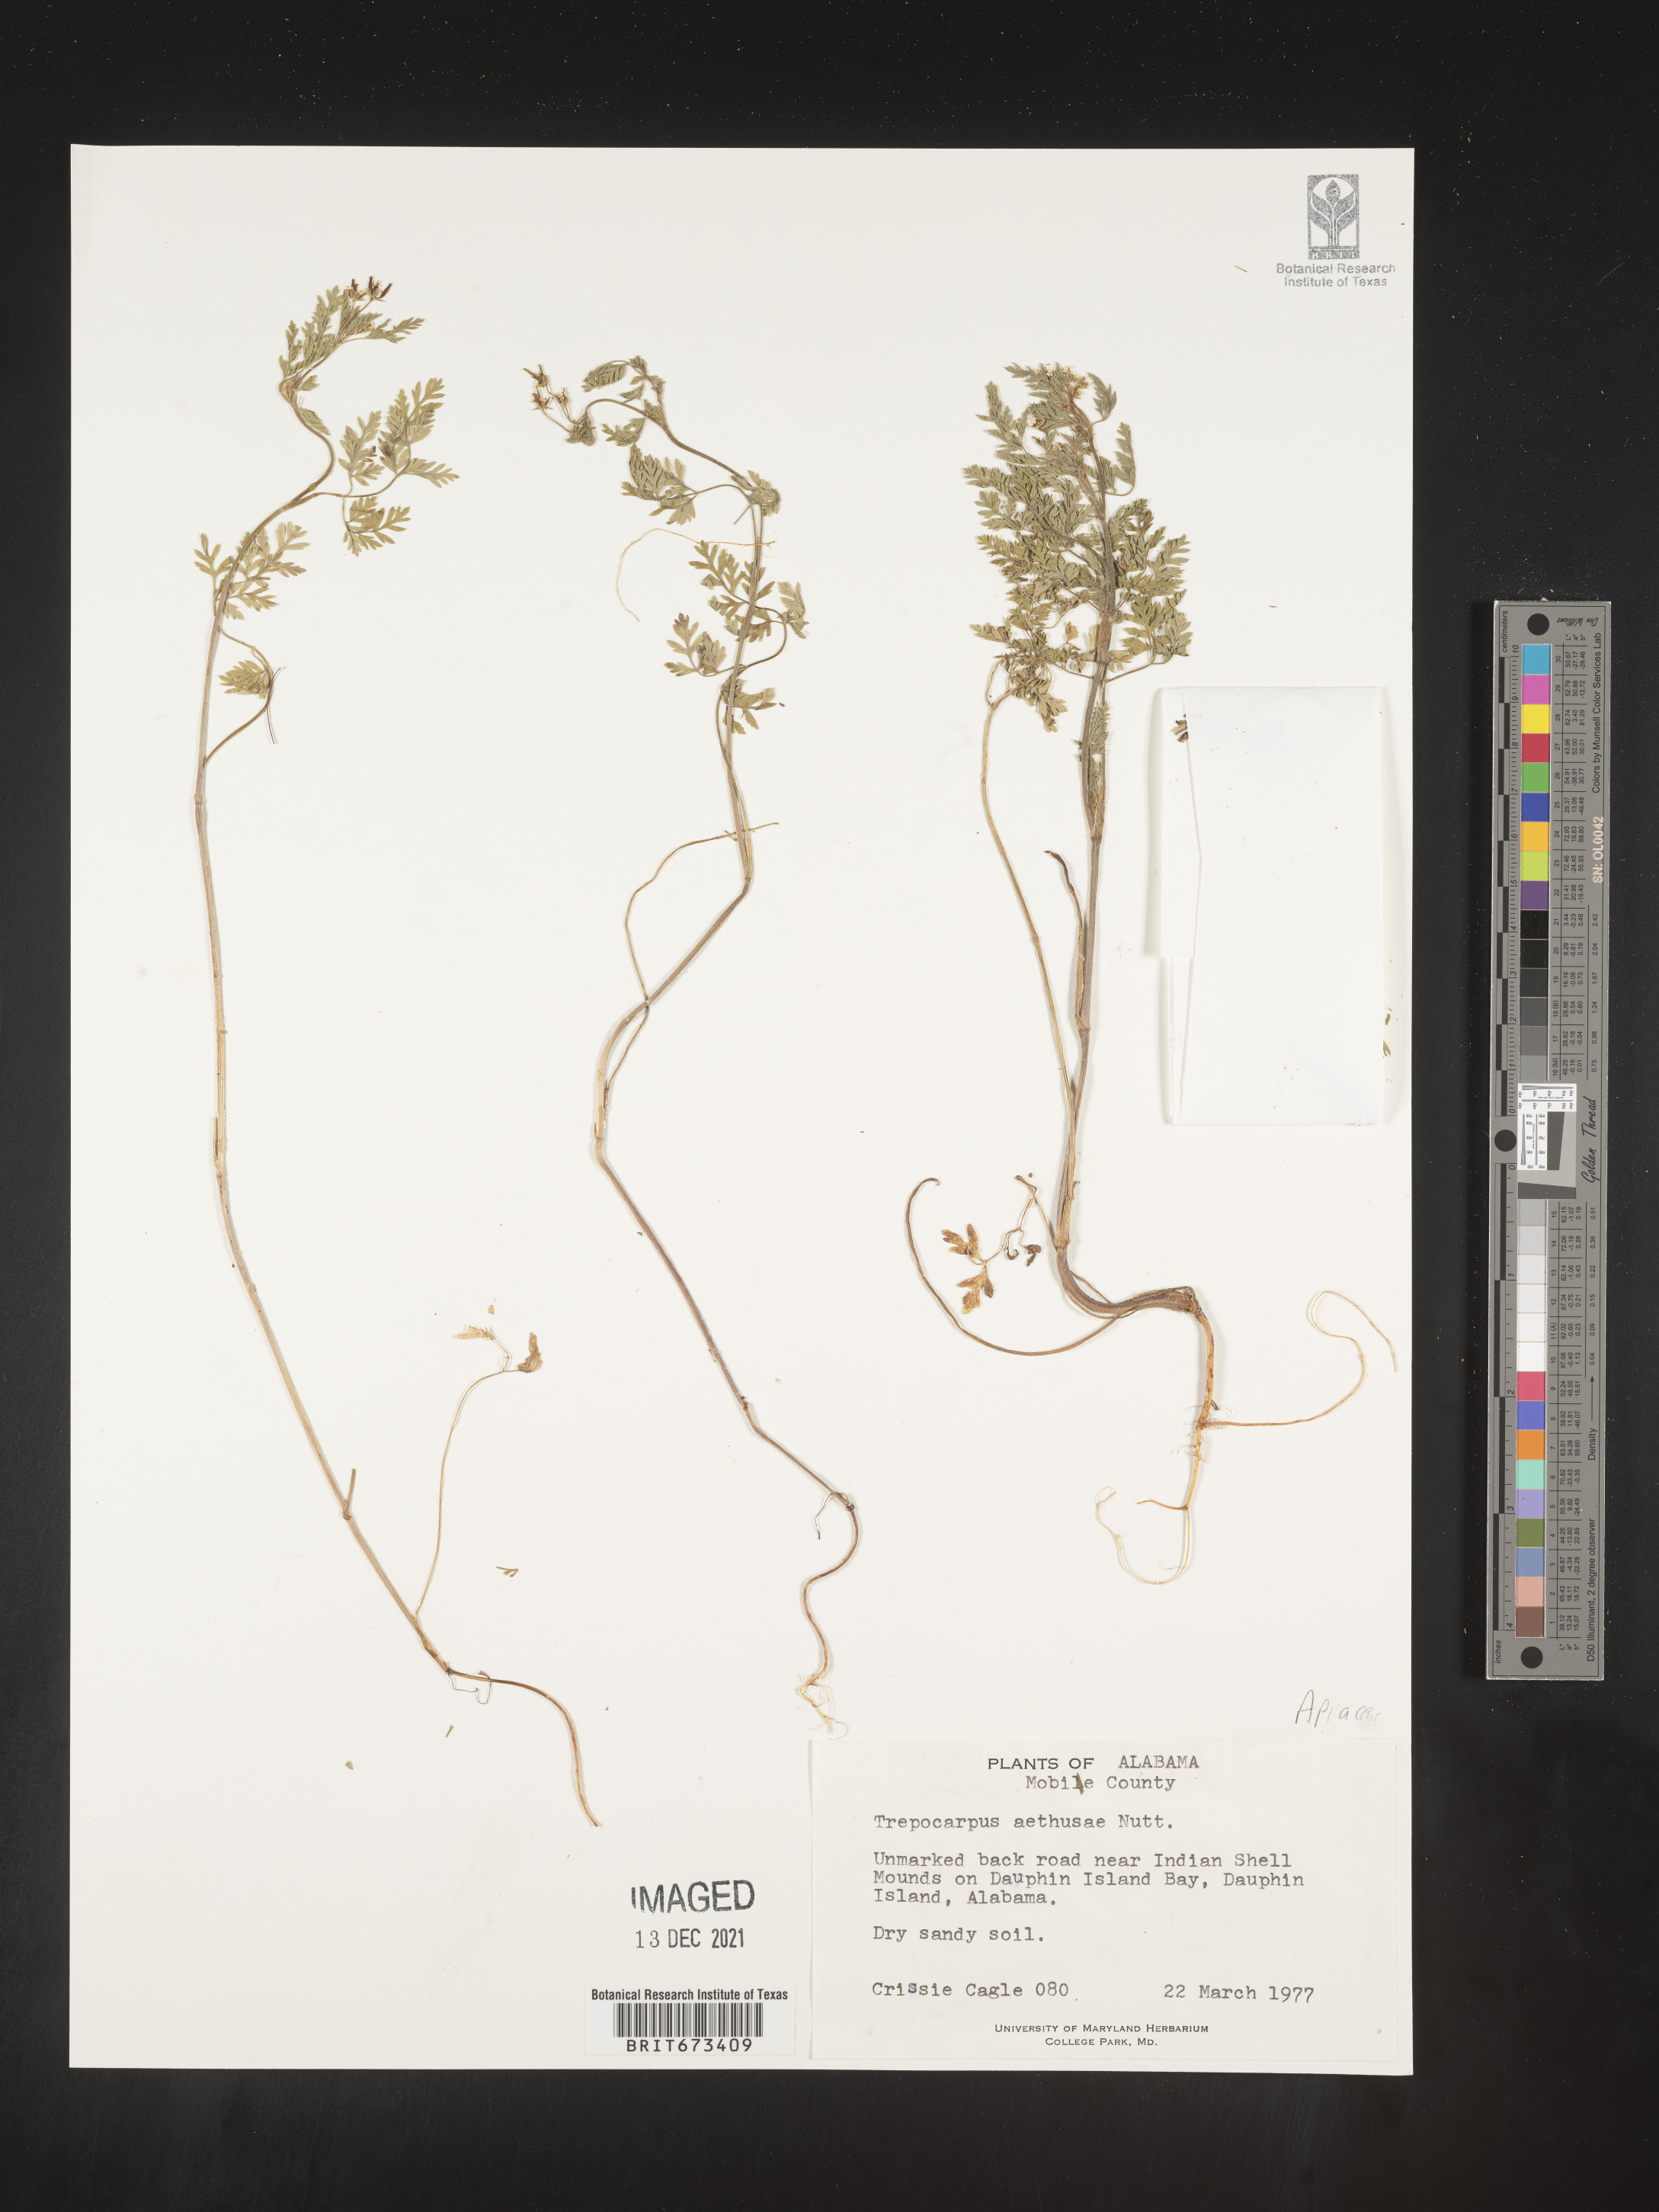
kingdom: Plantae
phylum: Tracheophyta
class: Magnoliopsida
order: Apiales
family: Apiaceae
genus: Trepocarpus
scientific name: Trepocarpus aethusae
